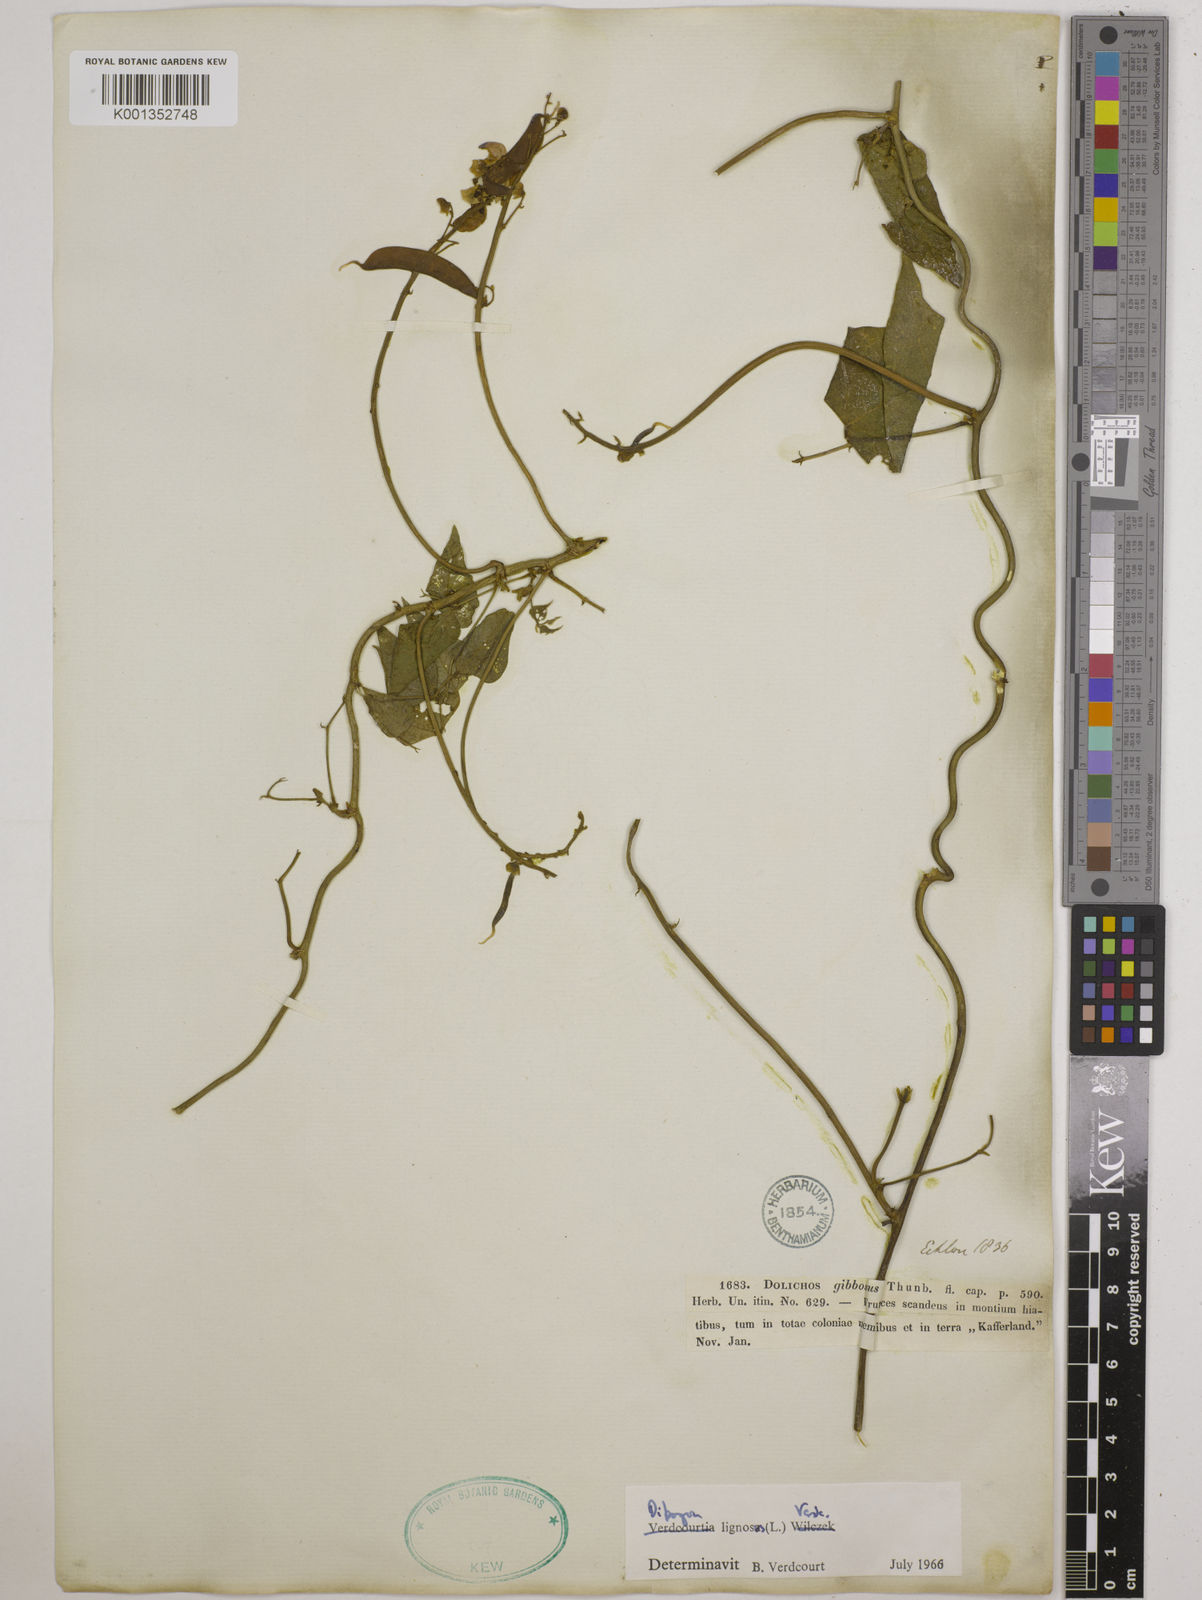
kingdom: Plantae
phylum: Tracheophyta
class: Magnoliopsida
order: Fabales
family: Fabaceae
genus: Dipogon
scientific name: Dipogon lignosus
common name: Okie bean
